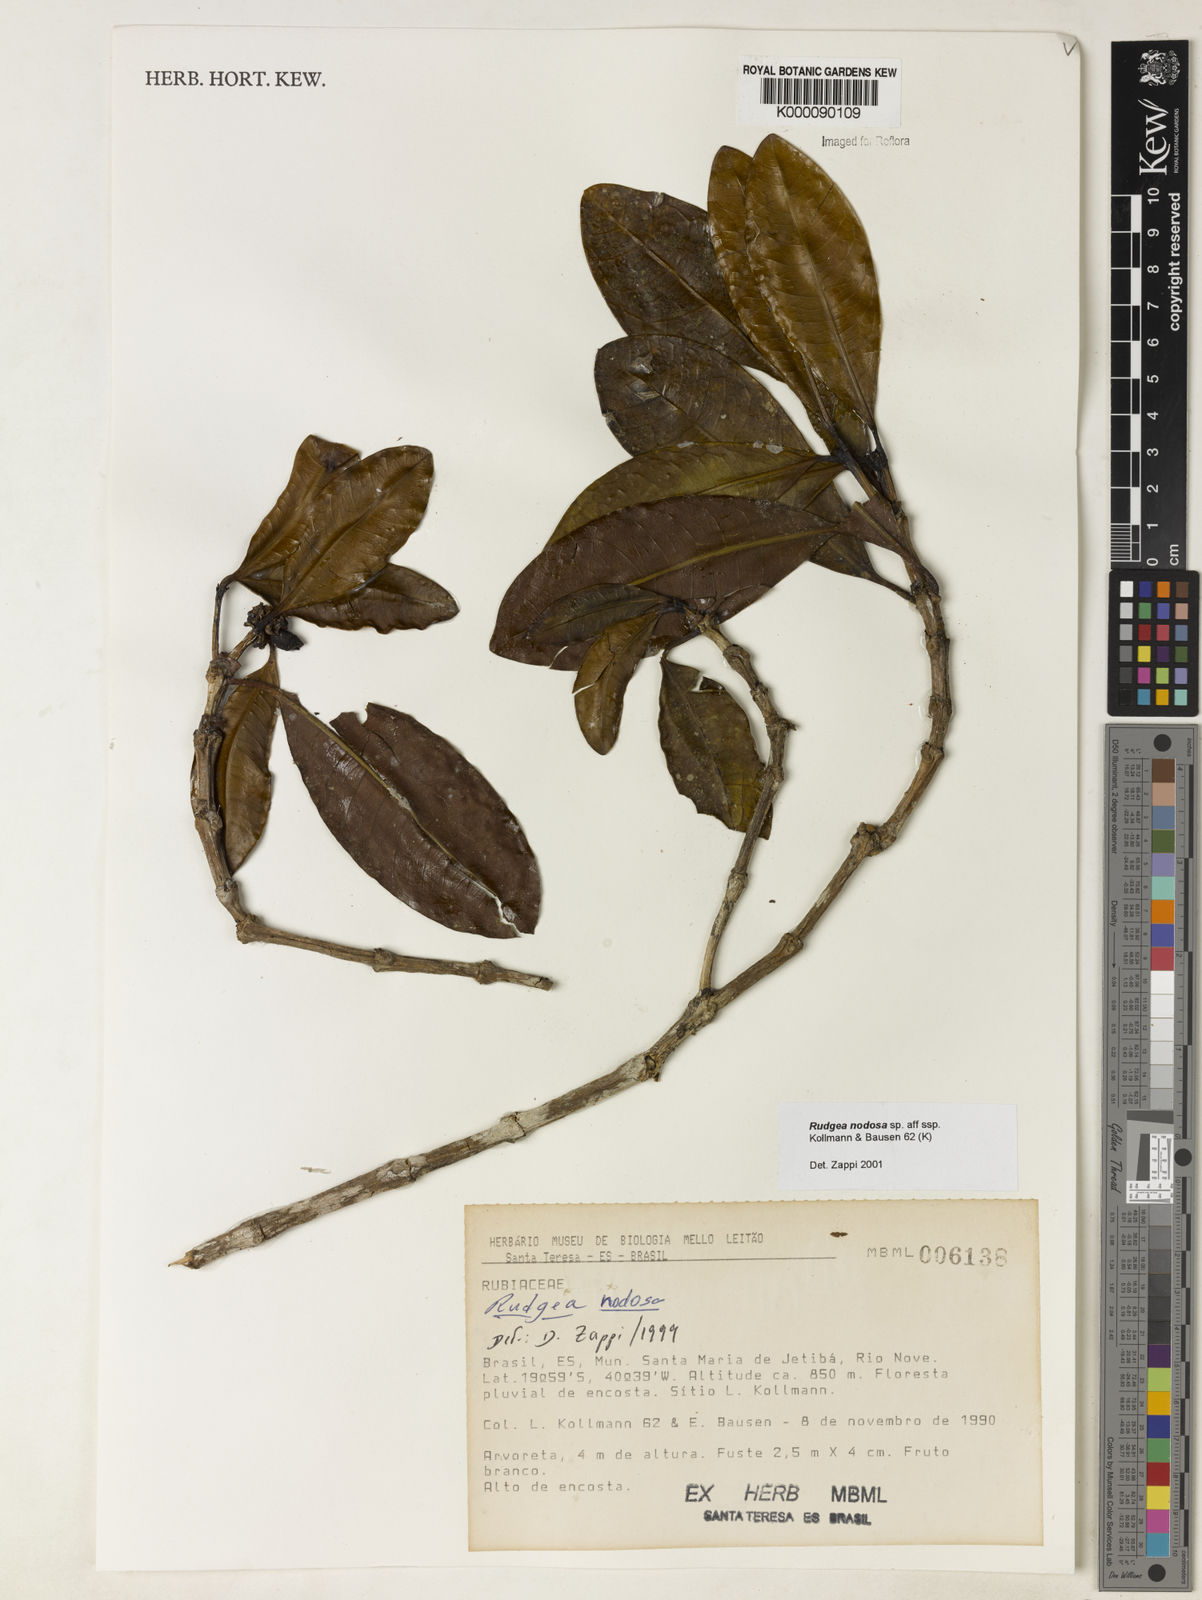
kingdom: Plantae
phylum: Tracheophyta
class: Magnoliopsida
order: Gentianales
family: Rubiaceae
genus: Rudgea
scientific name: Rudgea nodosa
